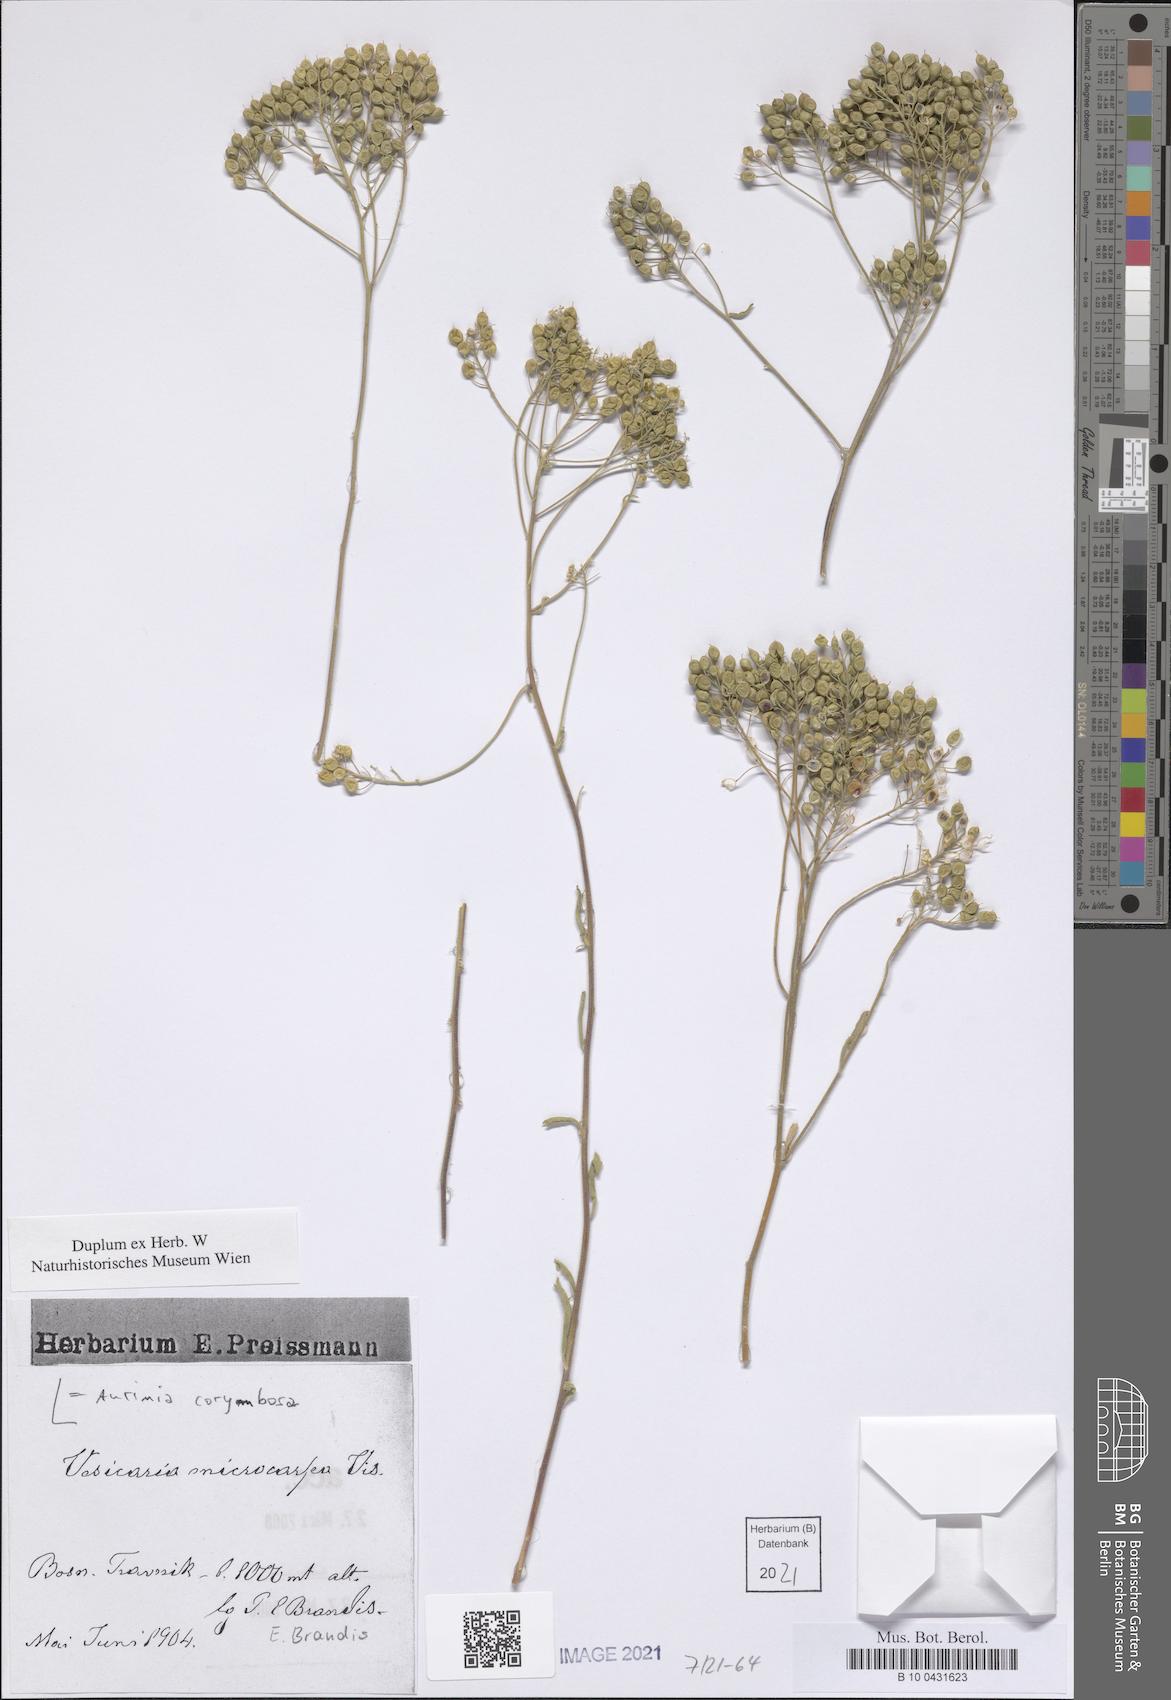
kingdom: Plantae
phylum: Tracheophyta
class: Magnoliopsida
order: Brassicales
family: Brassicaceae
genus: Aurinia
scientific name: Aurinia corymbosa
